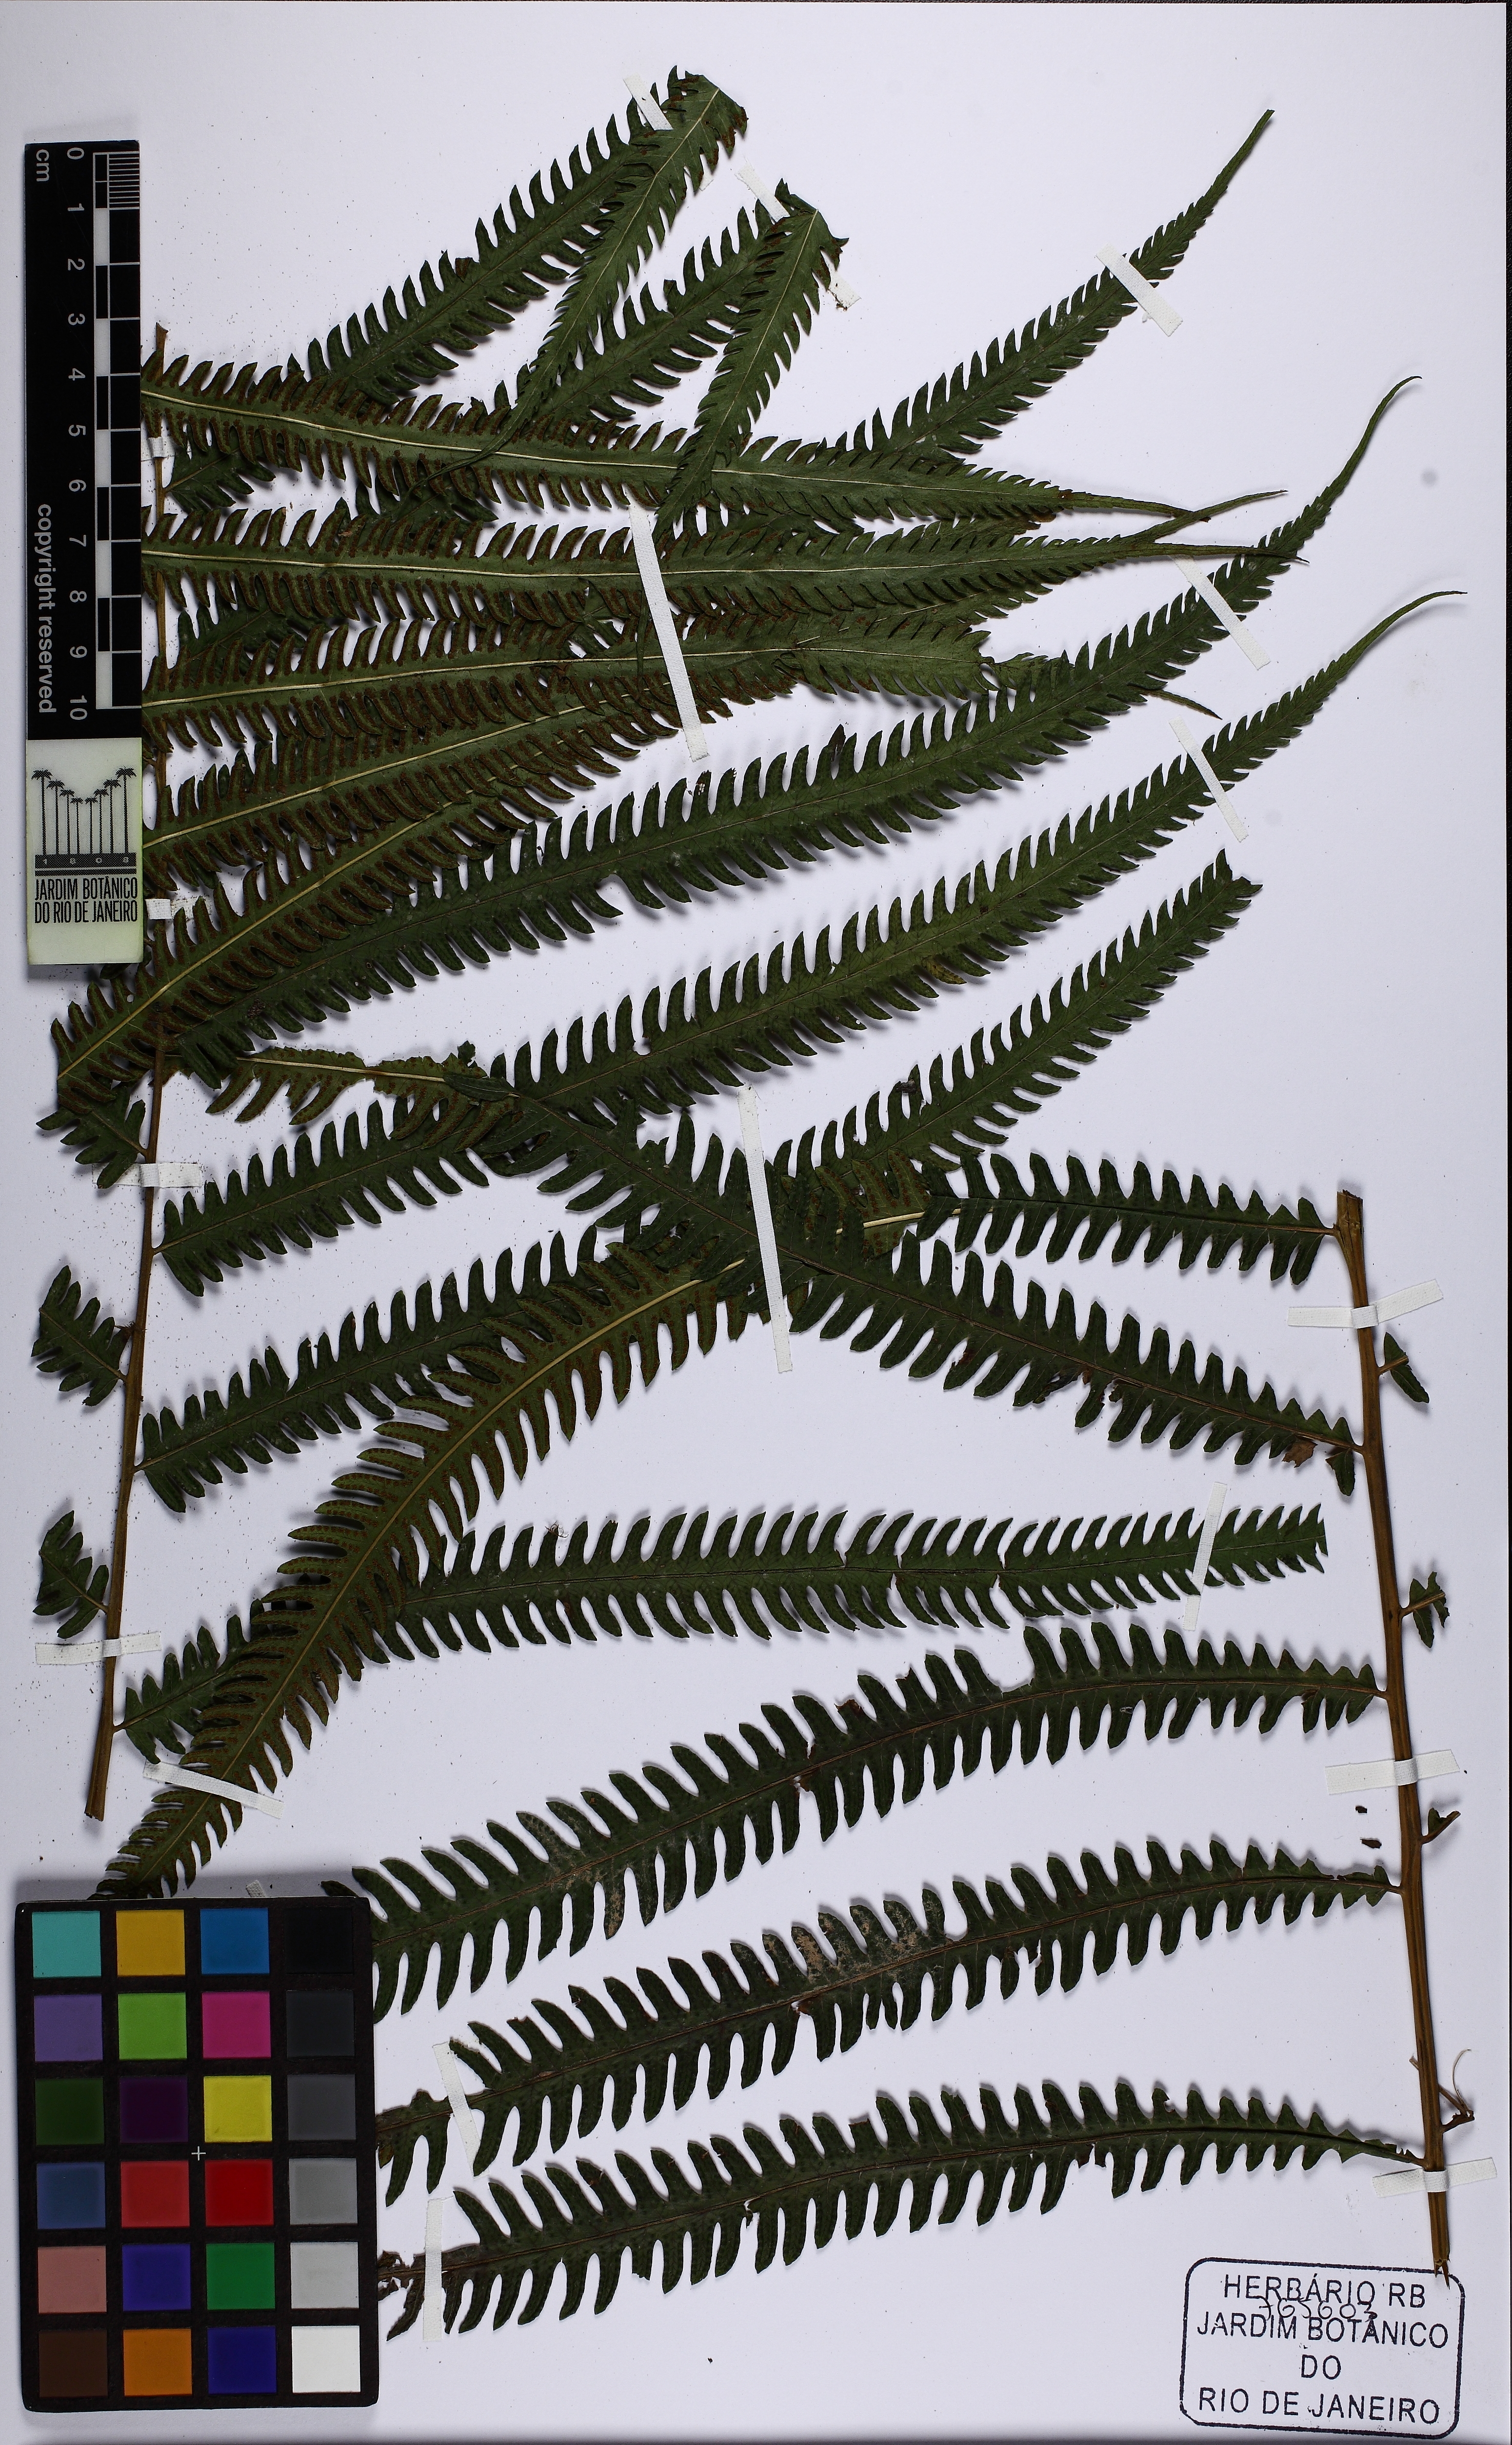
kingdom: Plantae
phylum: Tracheophyta
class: Polypodiopsida
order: Polypodiales
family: Thelypteridaceae
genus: Amblovenatum
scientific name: Amblovenatum opulentum
